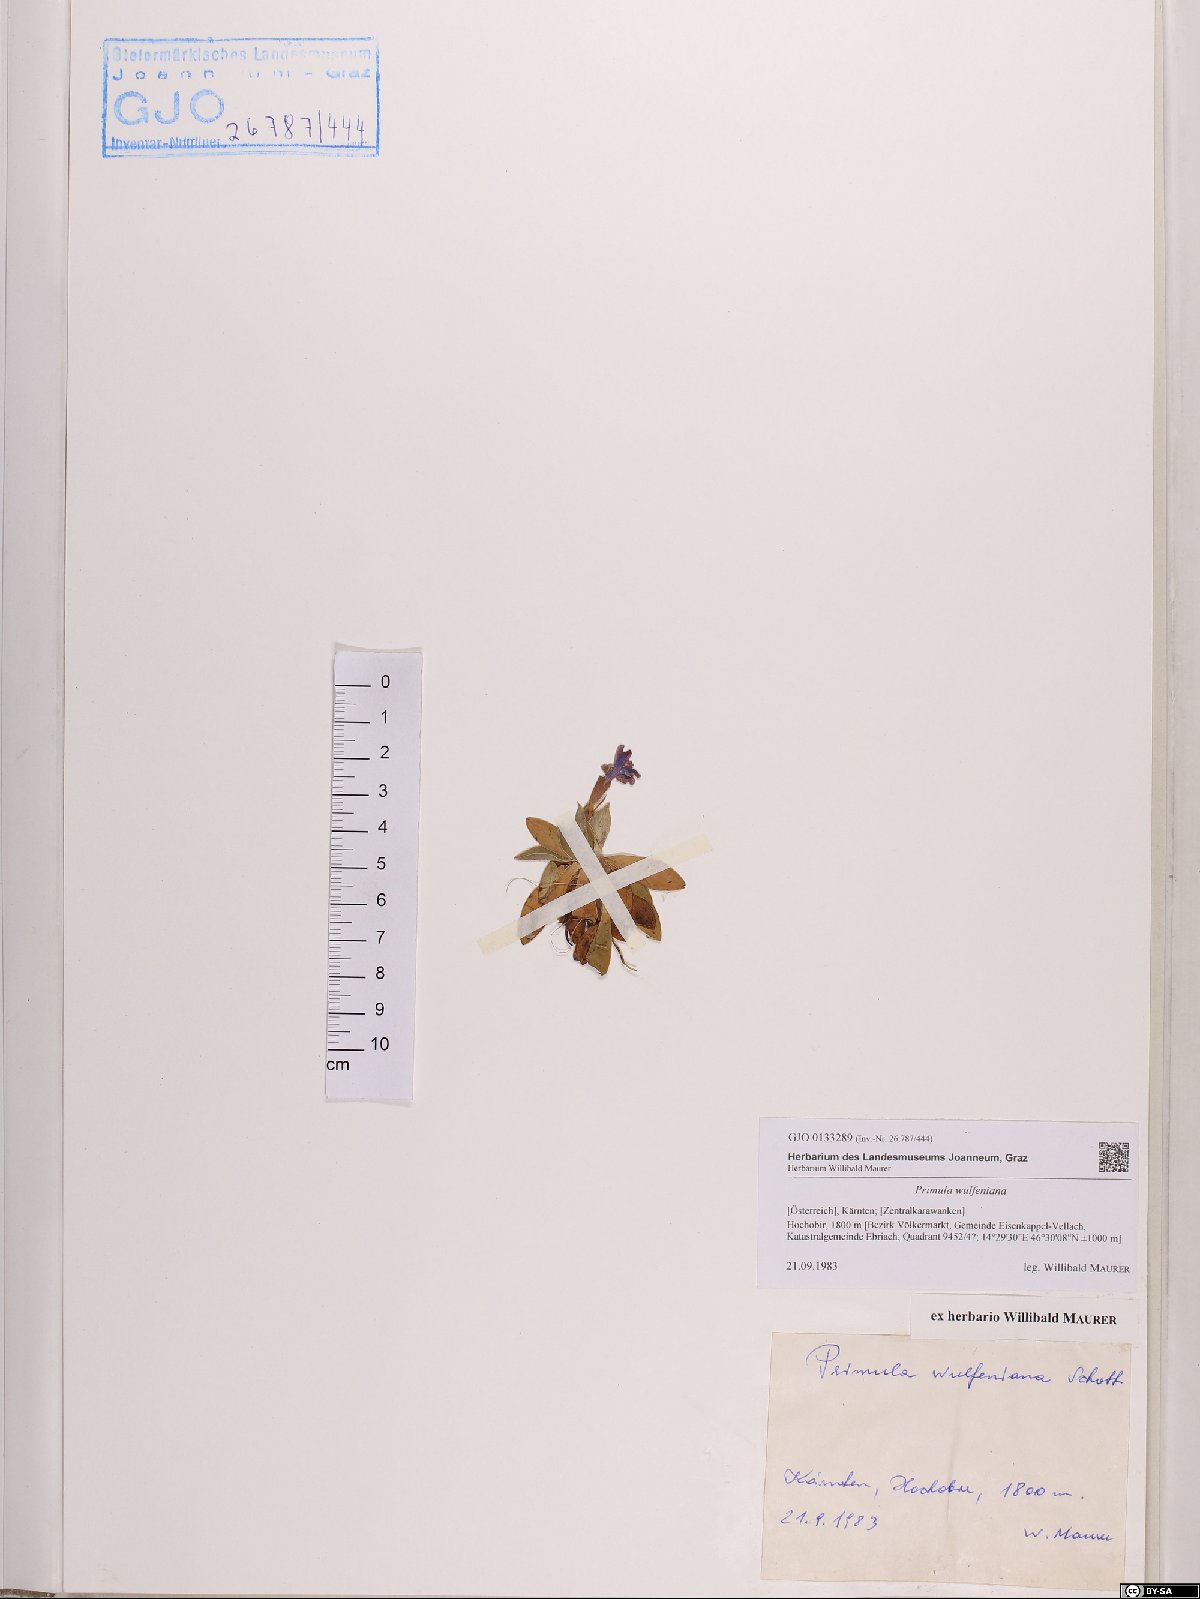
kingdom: Plantae
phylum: Tracheophyta
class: Magnoliopsida
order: Ericales
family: Primulaceae
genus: Primula
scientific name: Primula wulfeniana
